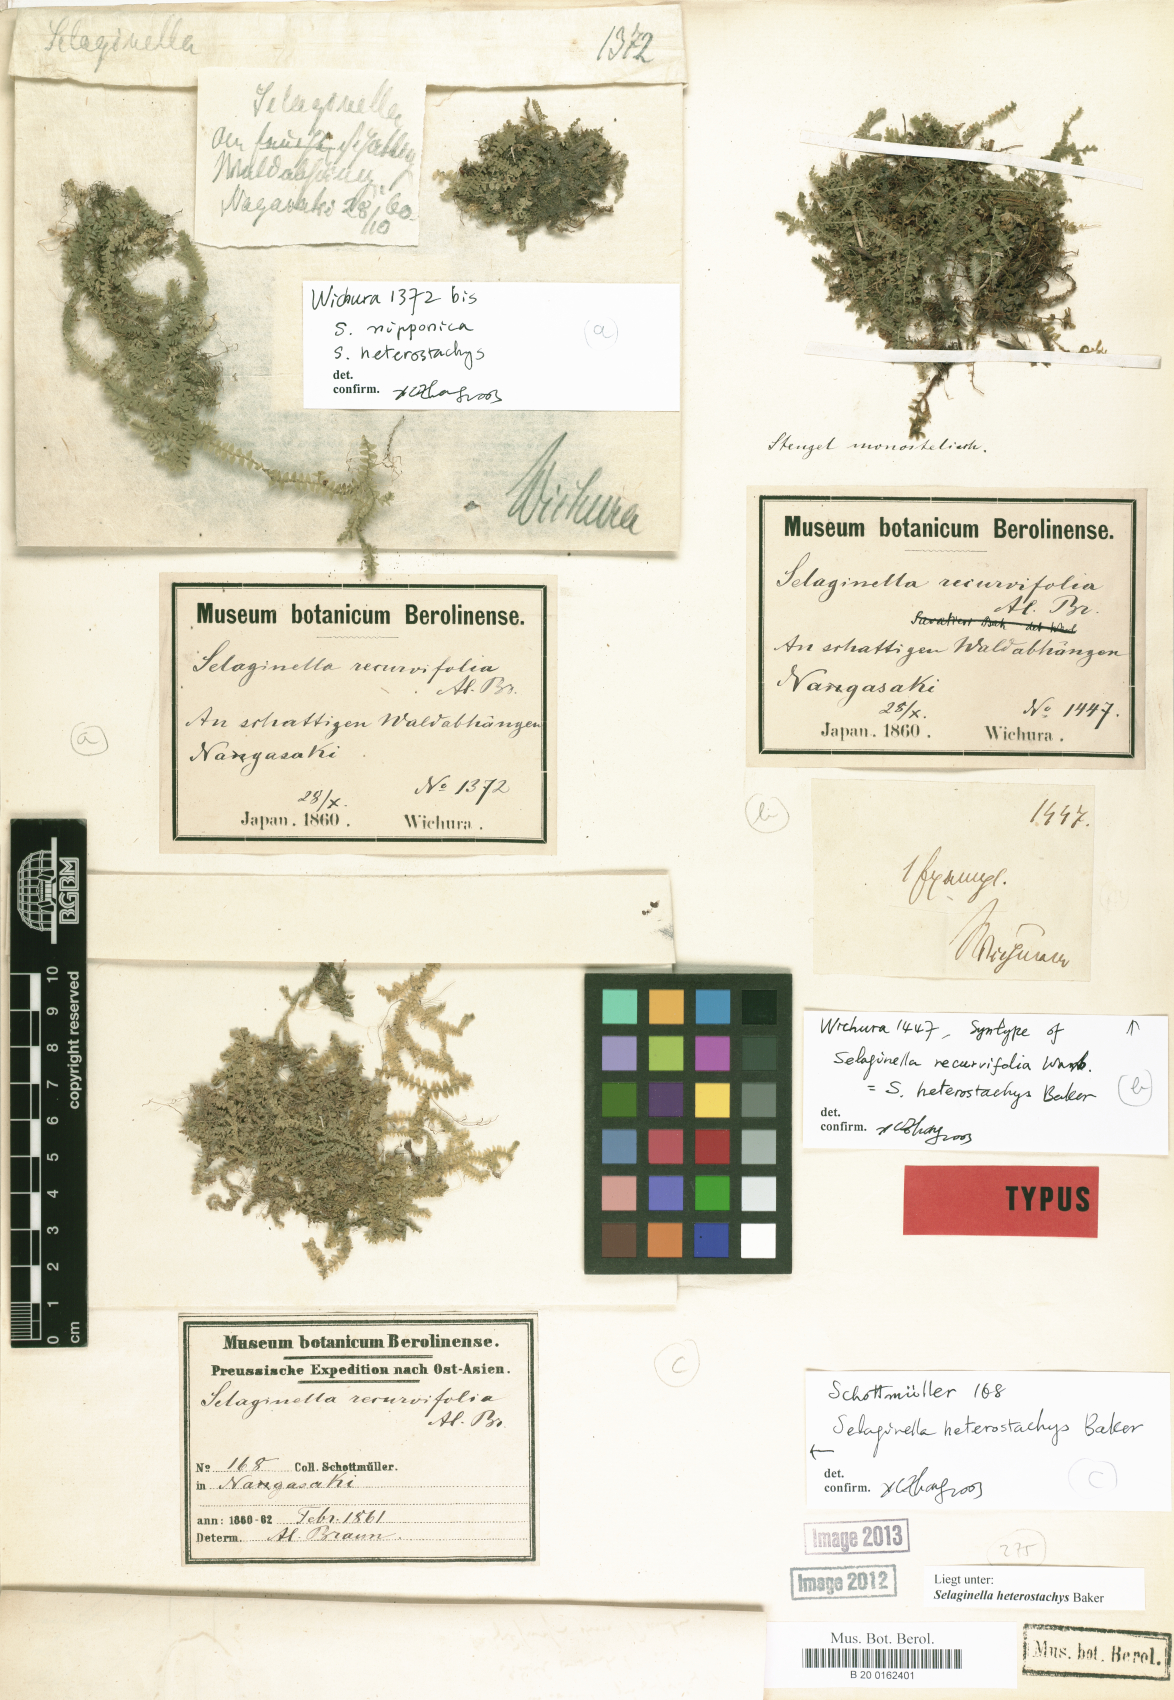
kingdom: Plantae
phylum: Tracheophyta
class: Lycopodiopsida
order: Selaginellales
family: Selaginellaceae
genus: Selaginella
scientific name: Selaginella heterostachys
